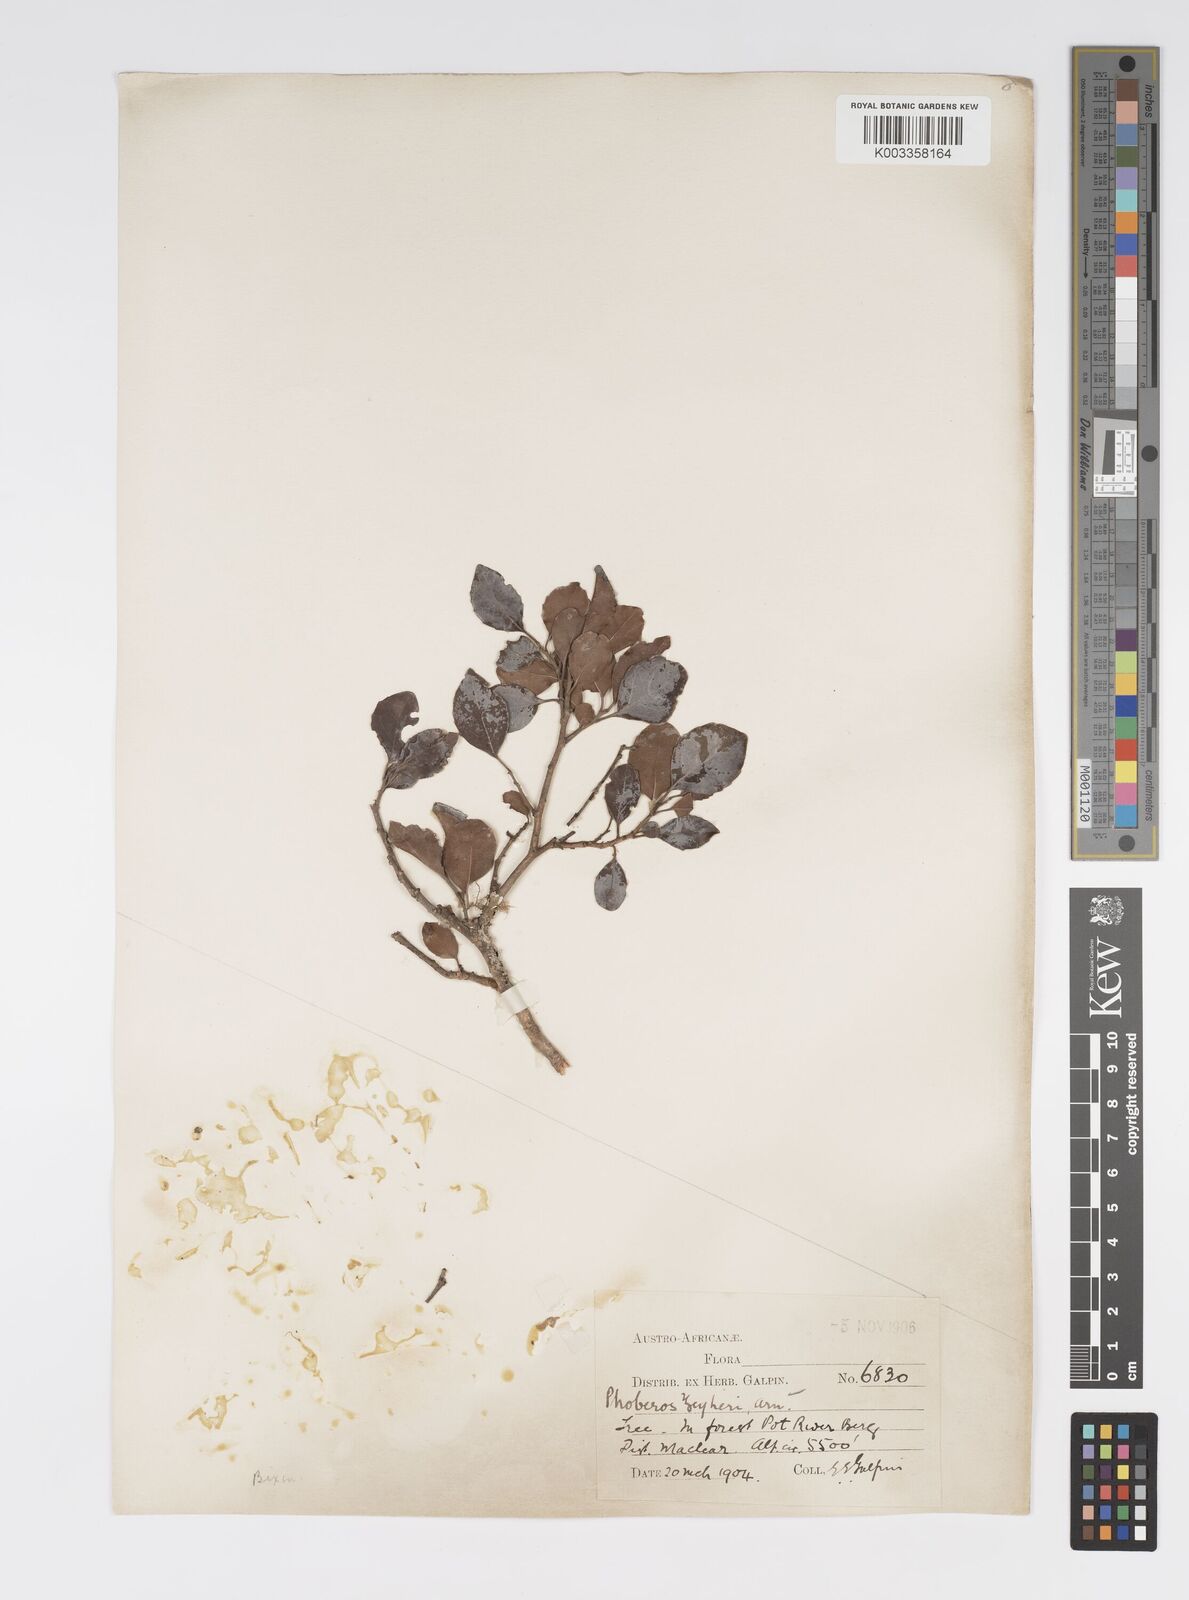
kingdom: Plantae
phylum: Tracheophyta
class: Magnoliopsida
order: Malpighiales
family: Salicaceae
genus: Scolopia
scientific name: Scolopia zeyheri
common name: Thorn pear
